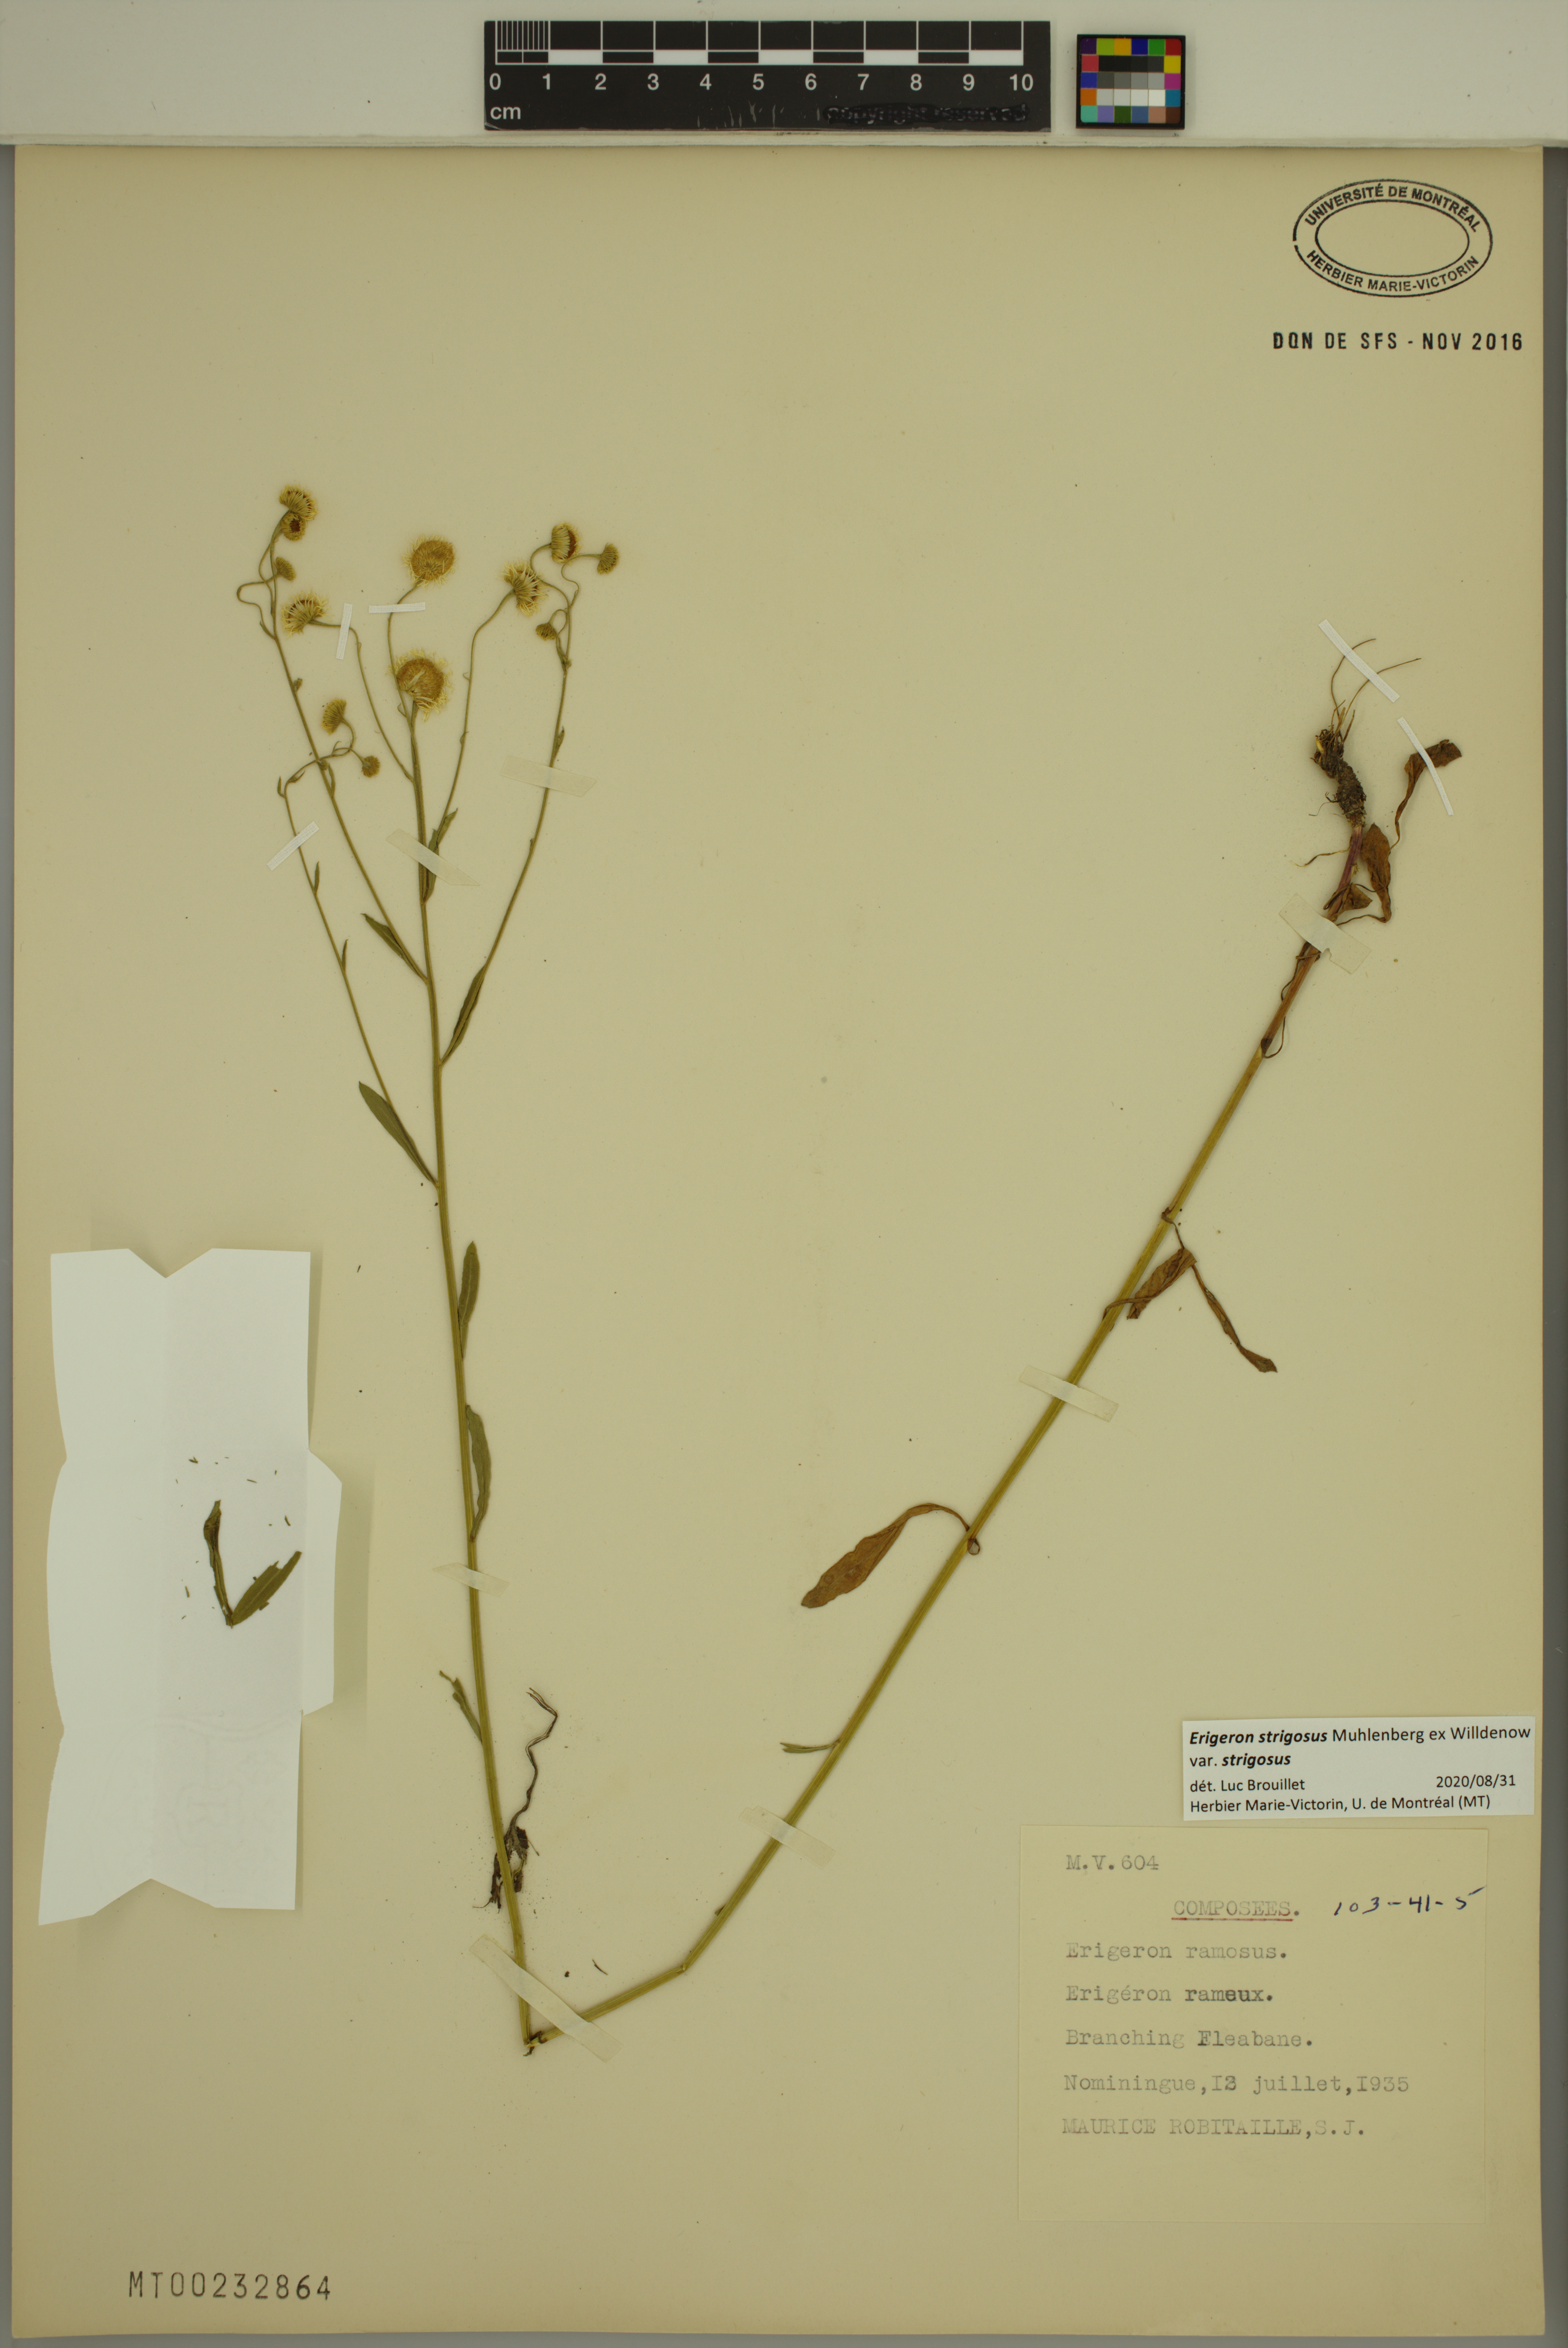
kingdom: Plantae
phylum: Tracheophyta
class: Magnoliopsida
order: Asterales
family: Asteraceae
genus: Erigeron
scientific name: Erigeron strigosus
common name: Common eastern fleabane
